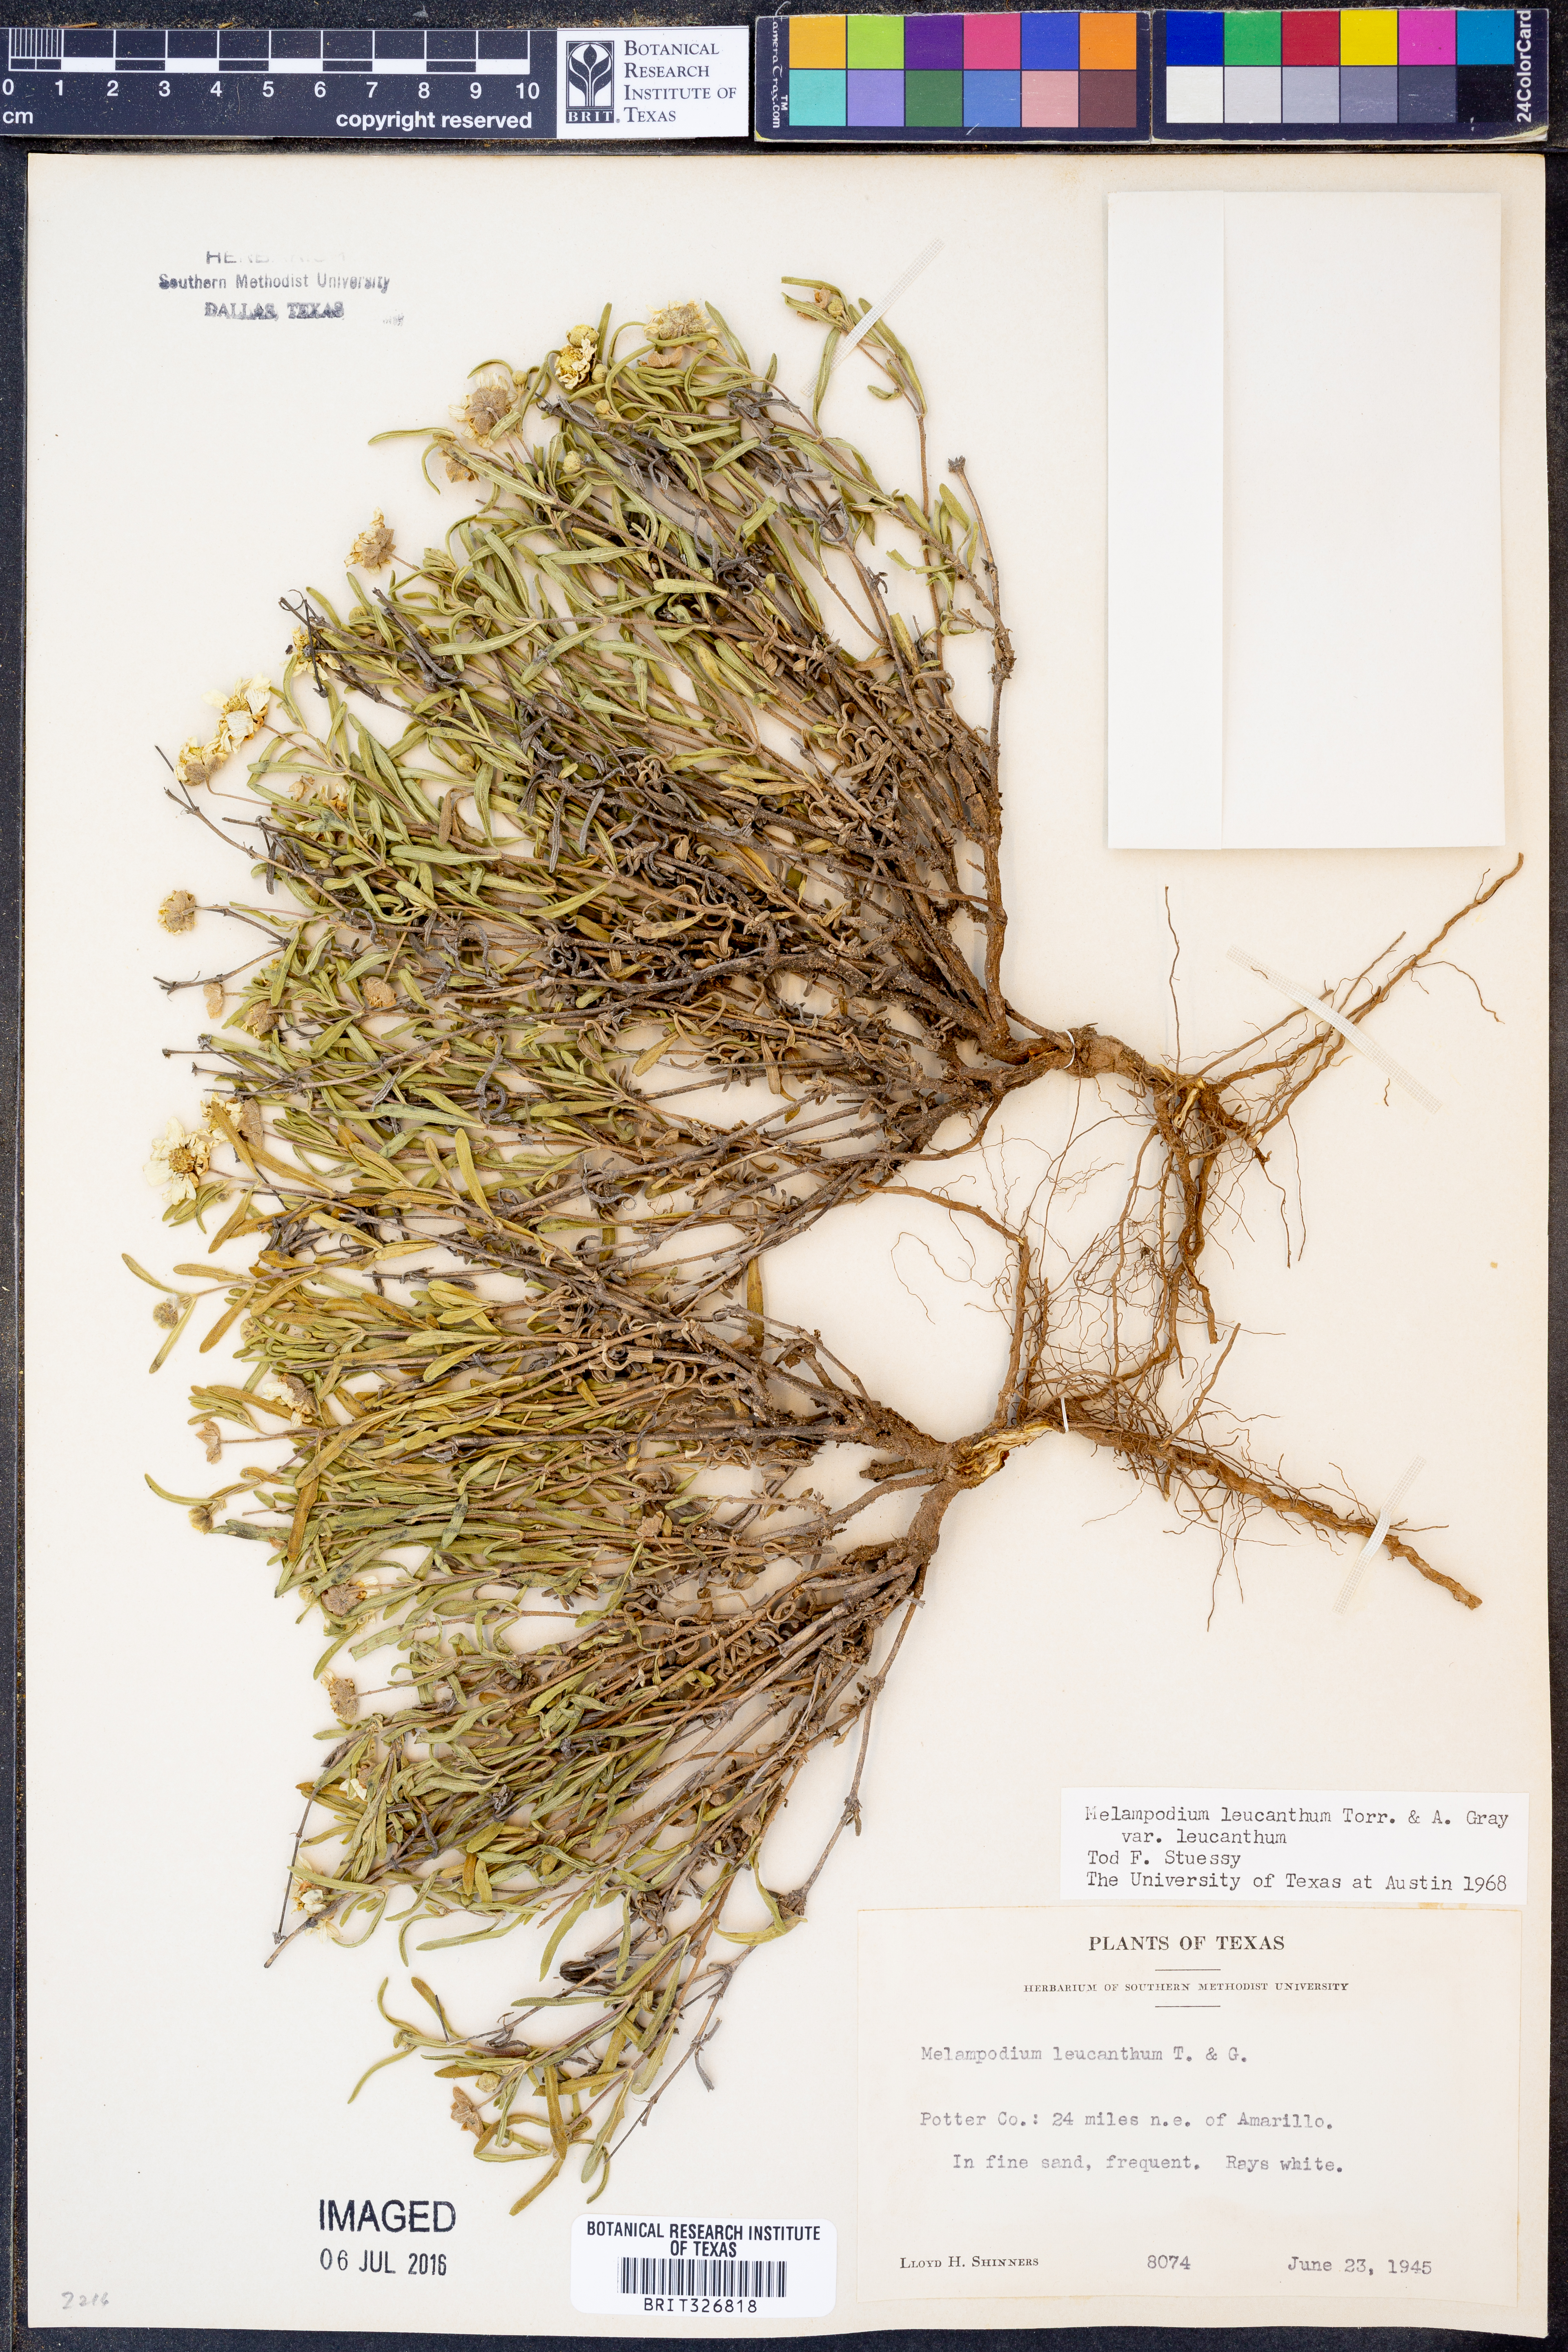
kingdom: Plantae
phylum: Tracheophyta
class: Magnoliopsida
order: Asterales
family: Asteraceae
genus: Melampodium
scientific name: Melampodium leucanthum
